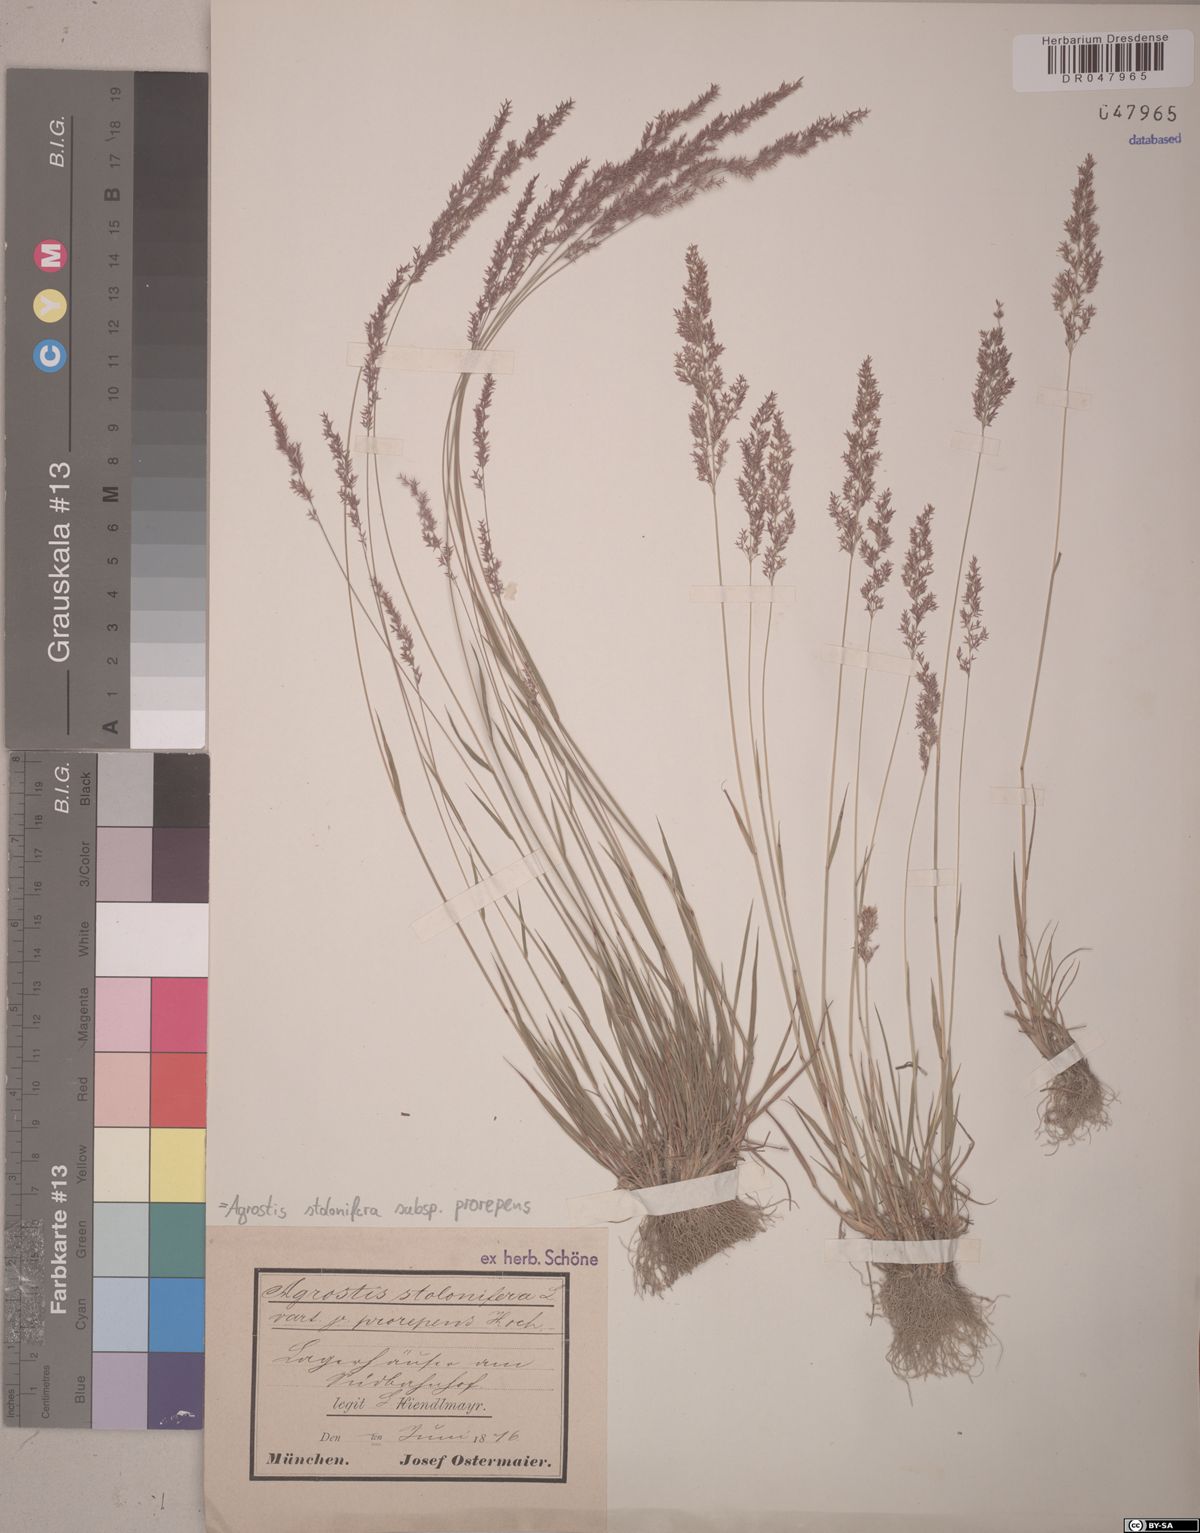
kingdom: Plantae
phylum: Tracheophyta
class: Liliopsida
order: Poales
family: Poaceae
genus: Agrostis
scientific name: Agrostis stolonifera
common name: Creeping bentgrass
